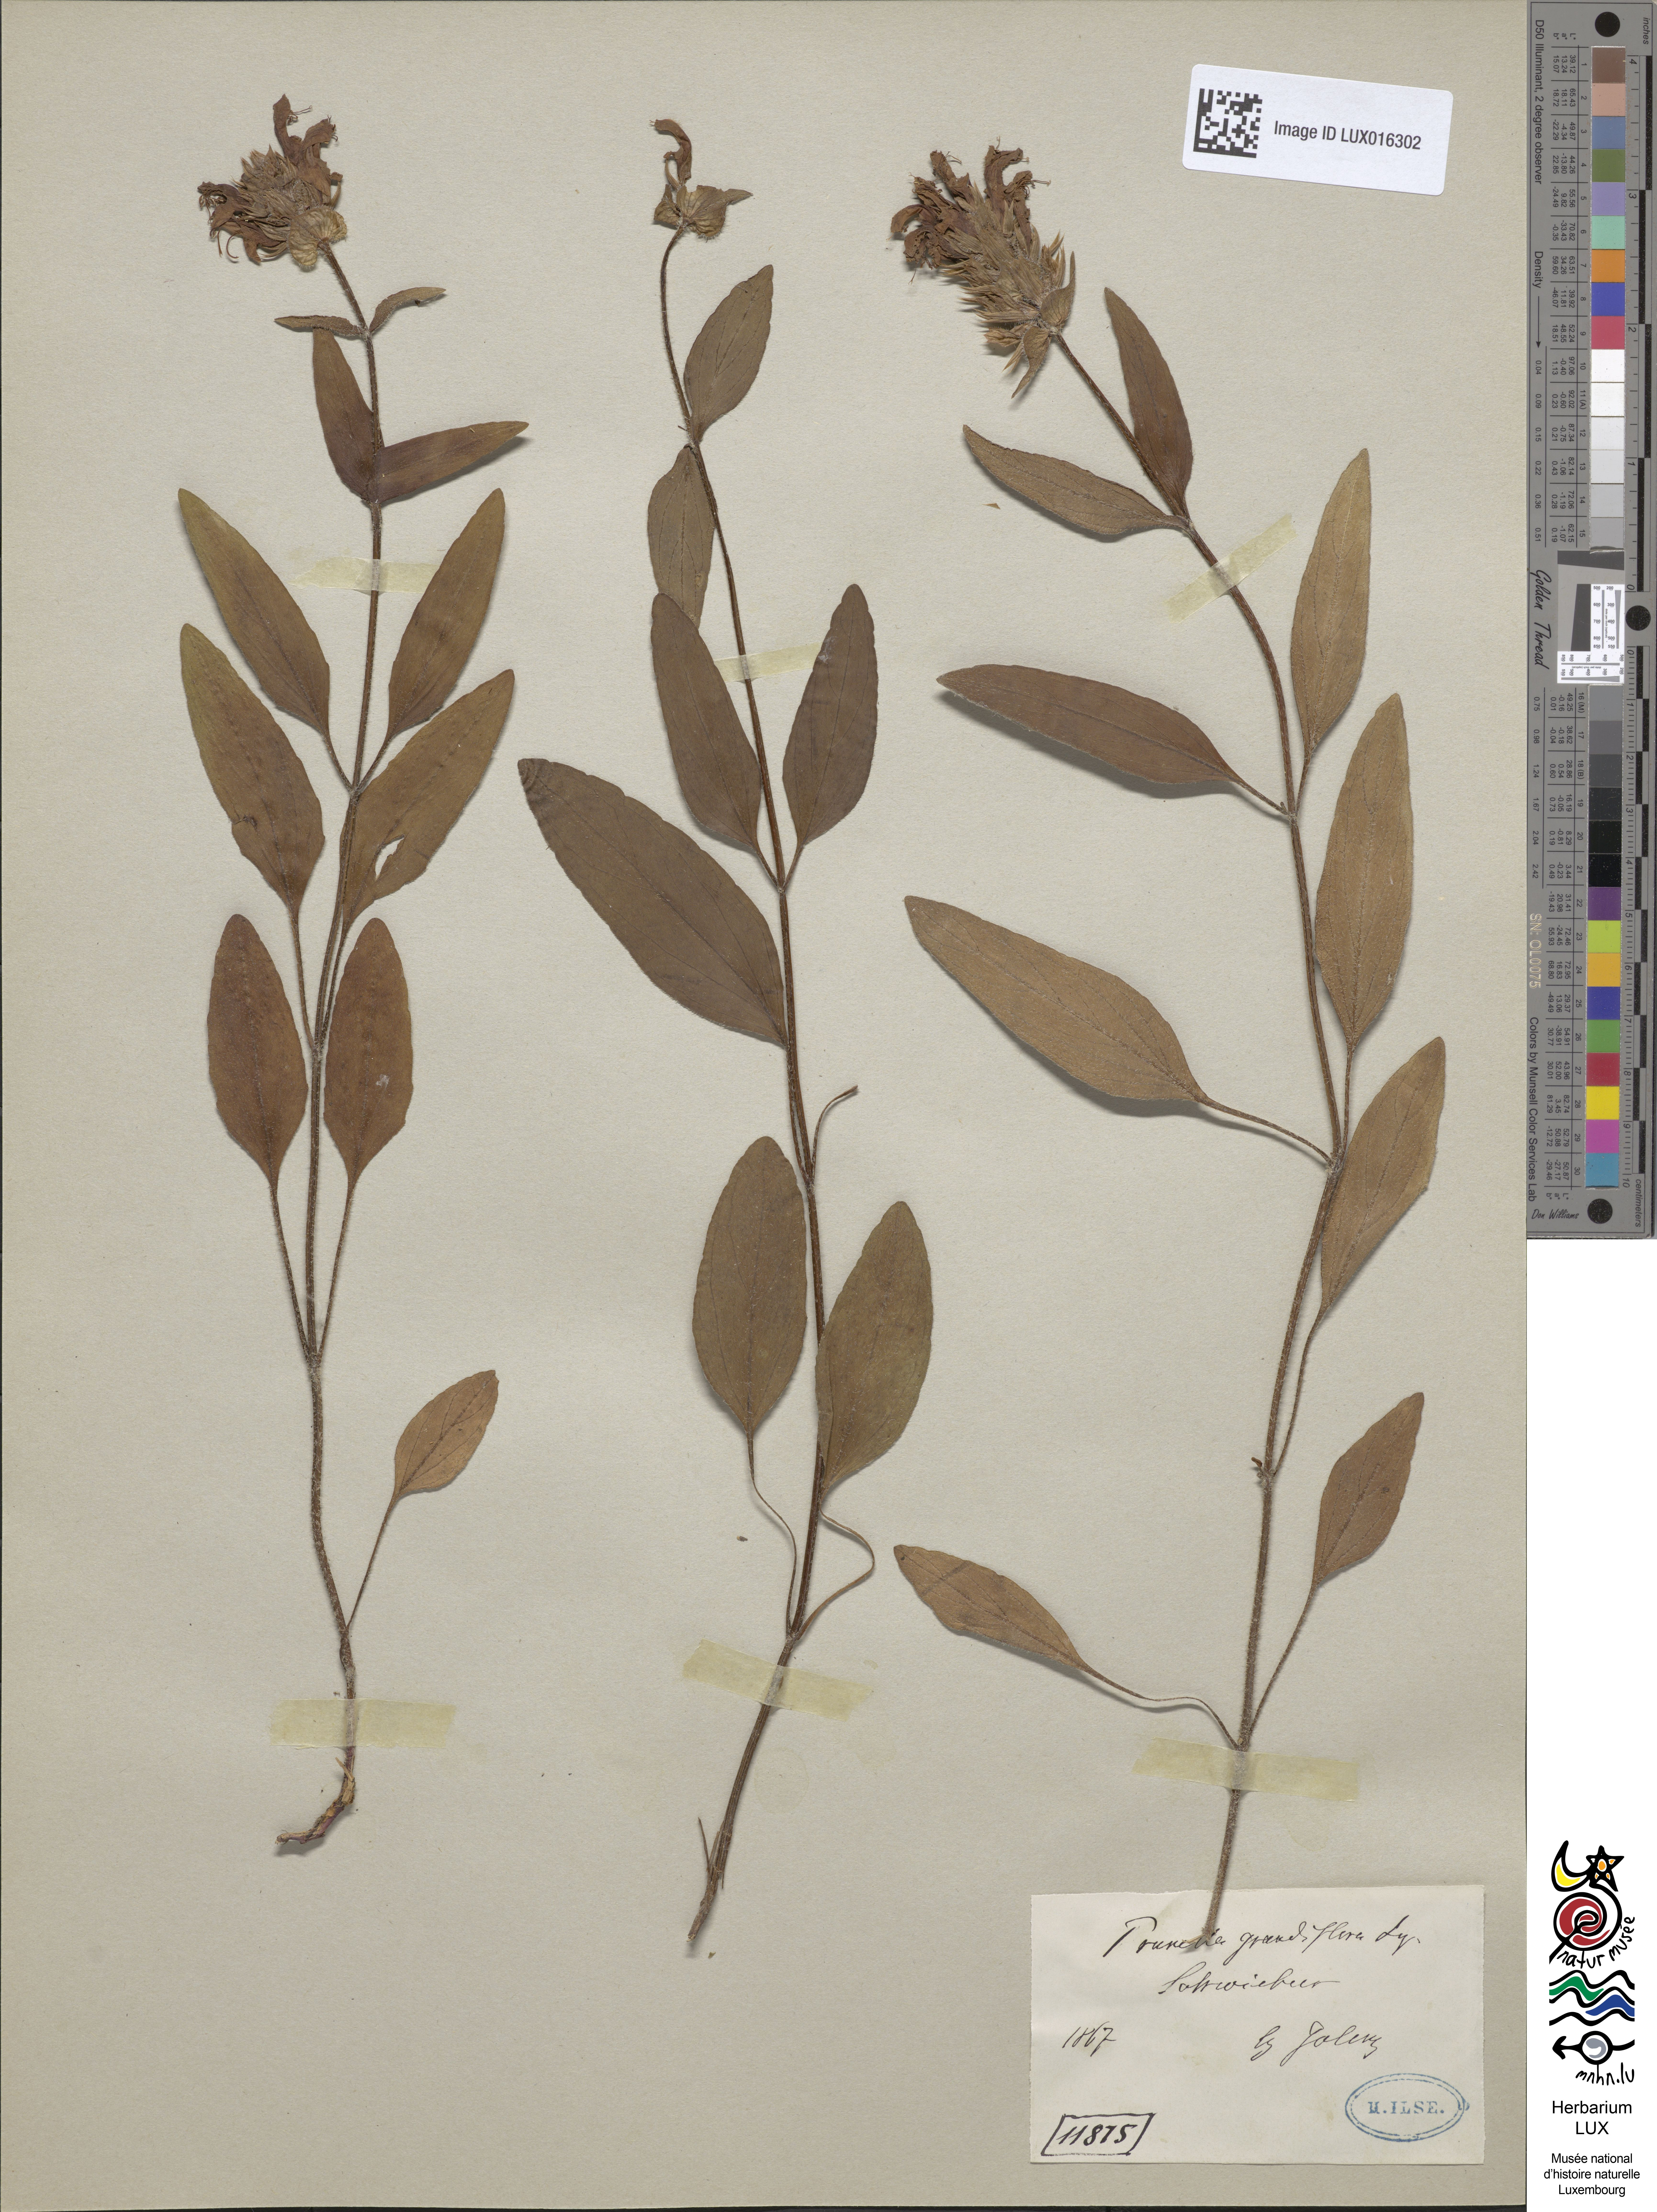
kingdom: Plantae
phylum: Tracheophyta
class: Magnoliopsida
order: Lamiales
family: Lamiaceae
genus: Prunella
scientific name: Prunella grandiflora
